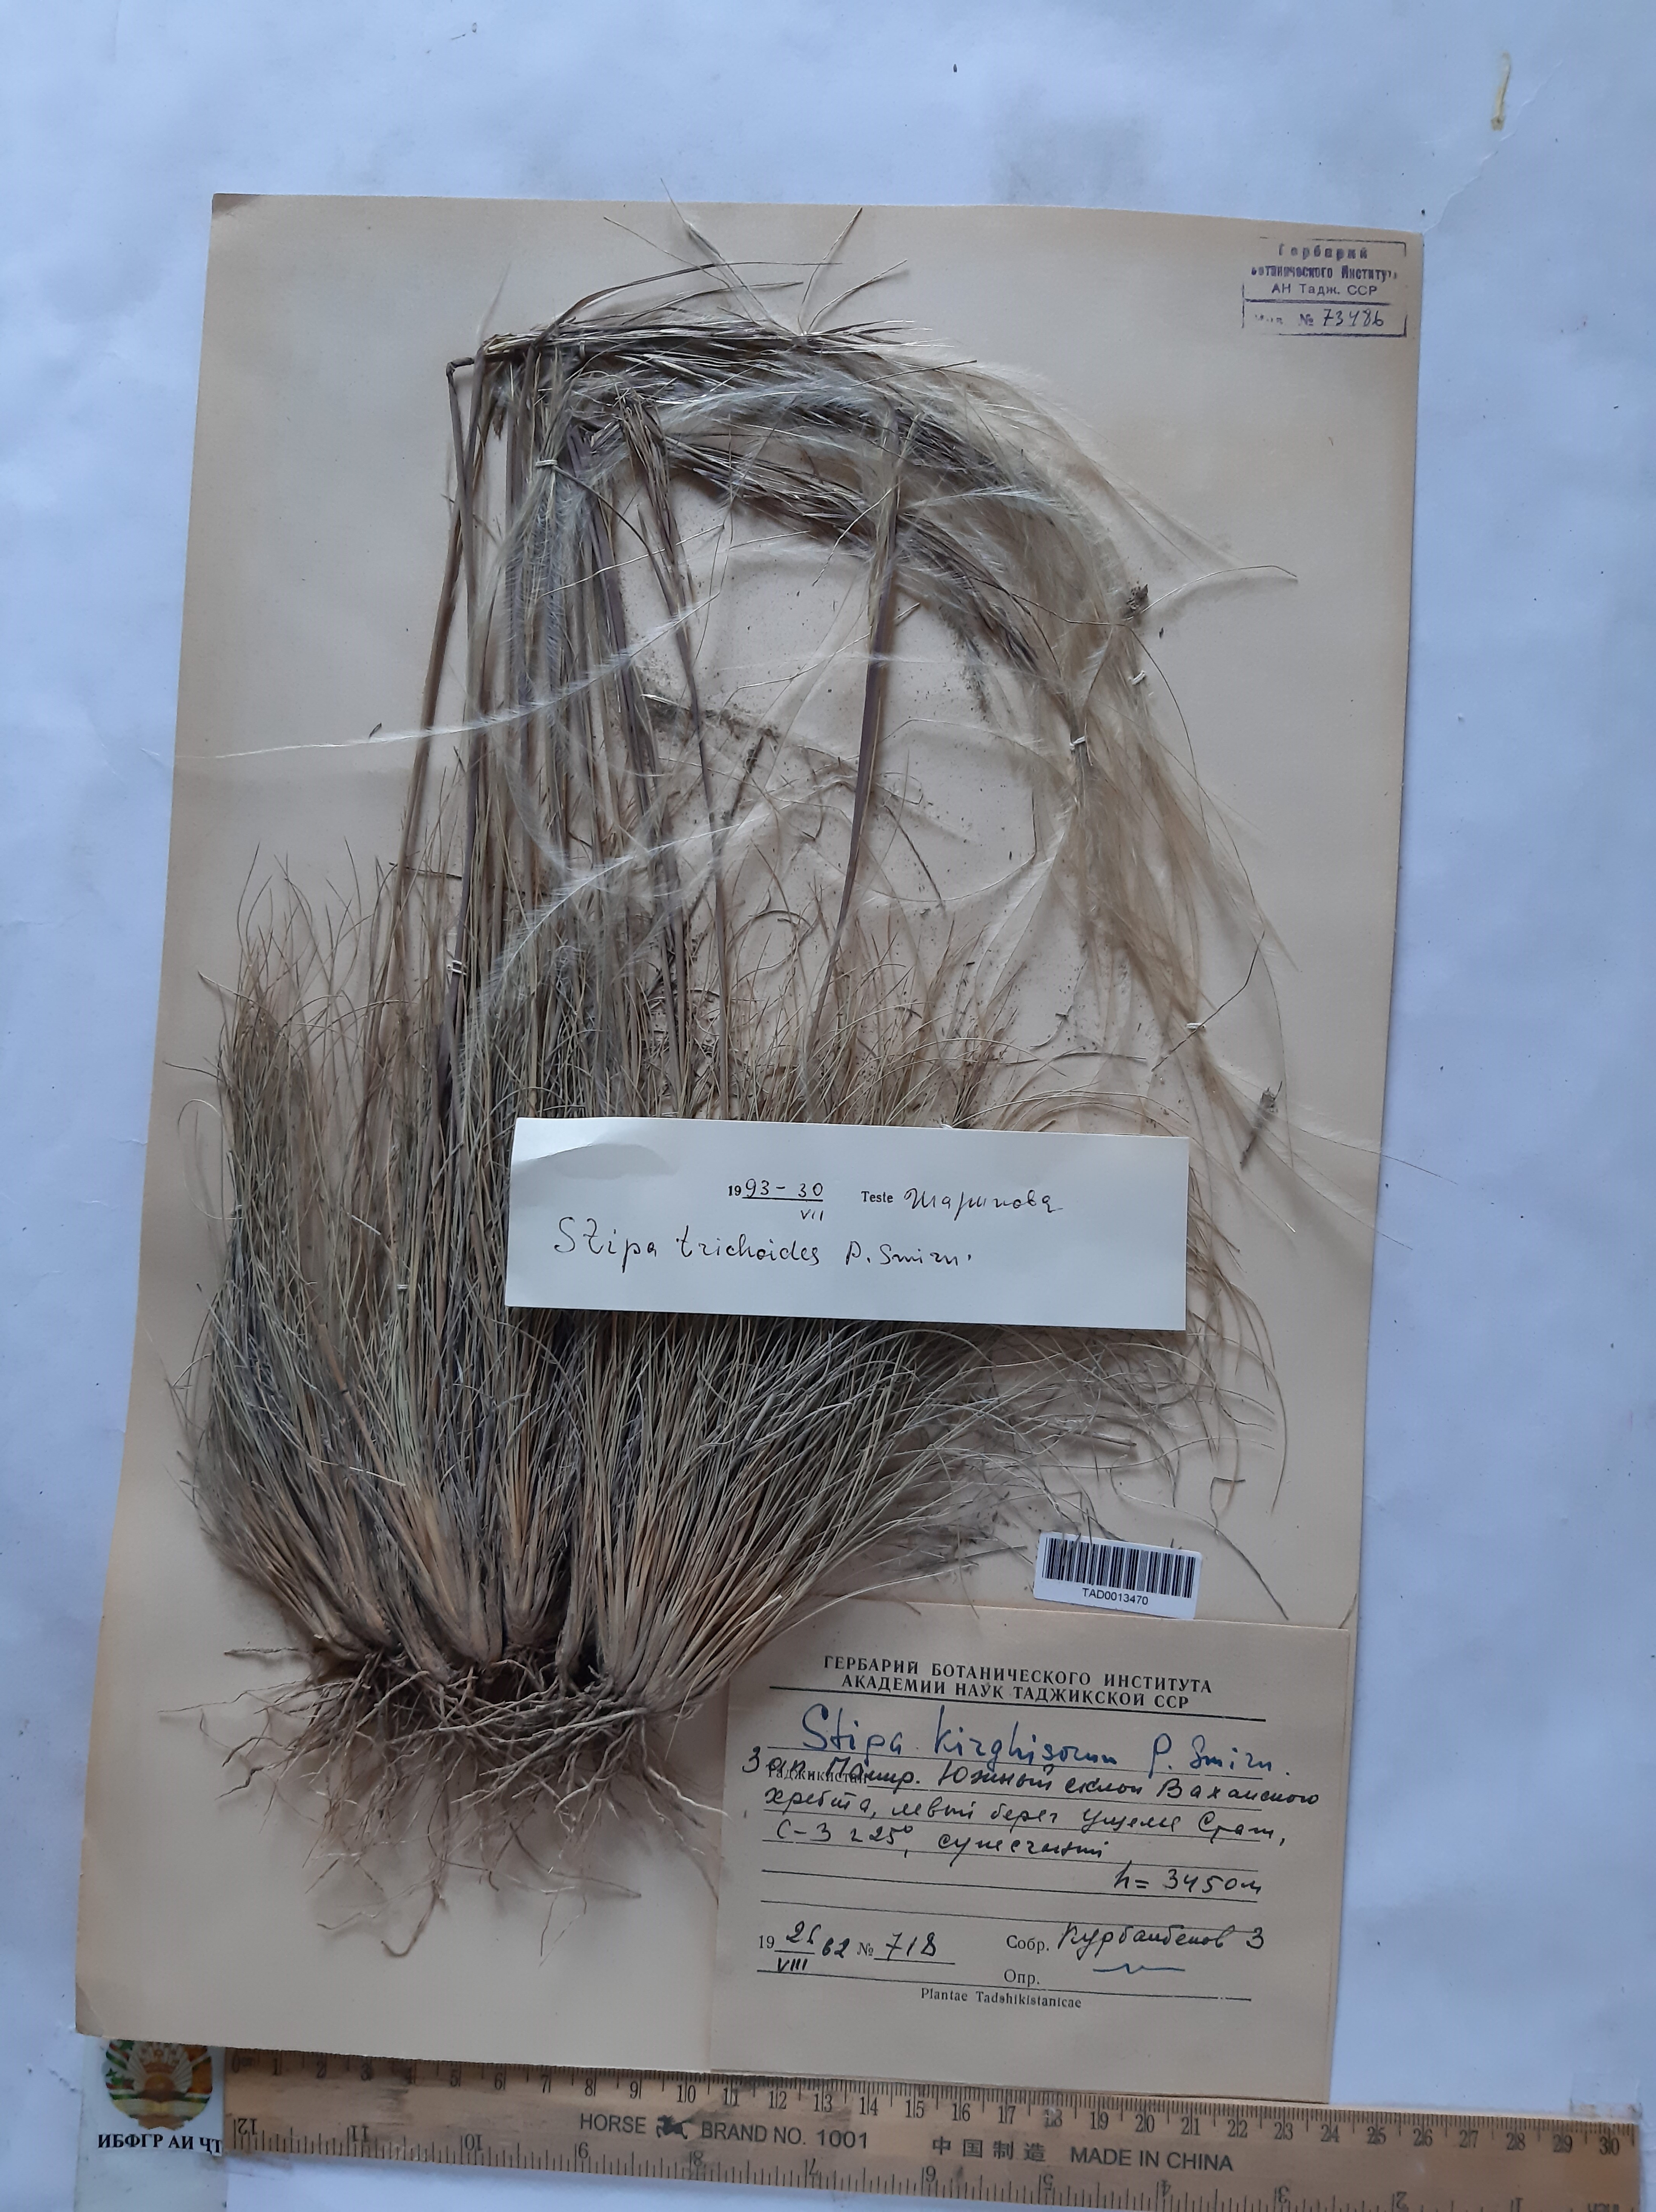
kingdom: Plantae
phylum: Tracheophyta
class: Liliopsida
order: Poales
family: Poaceae
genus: Stipa
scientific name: Stipa trichoides
